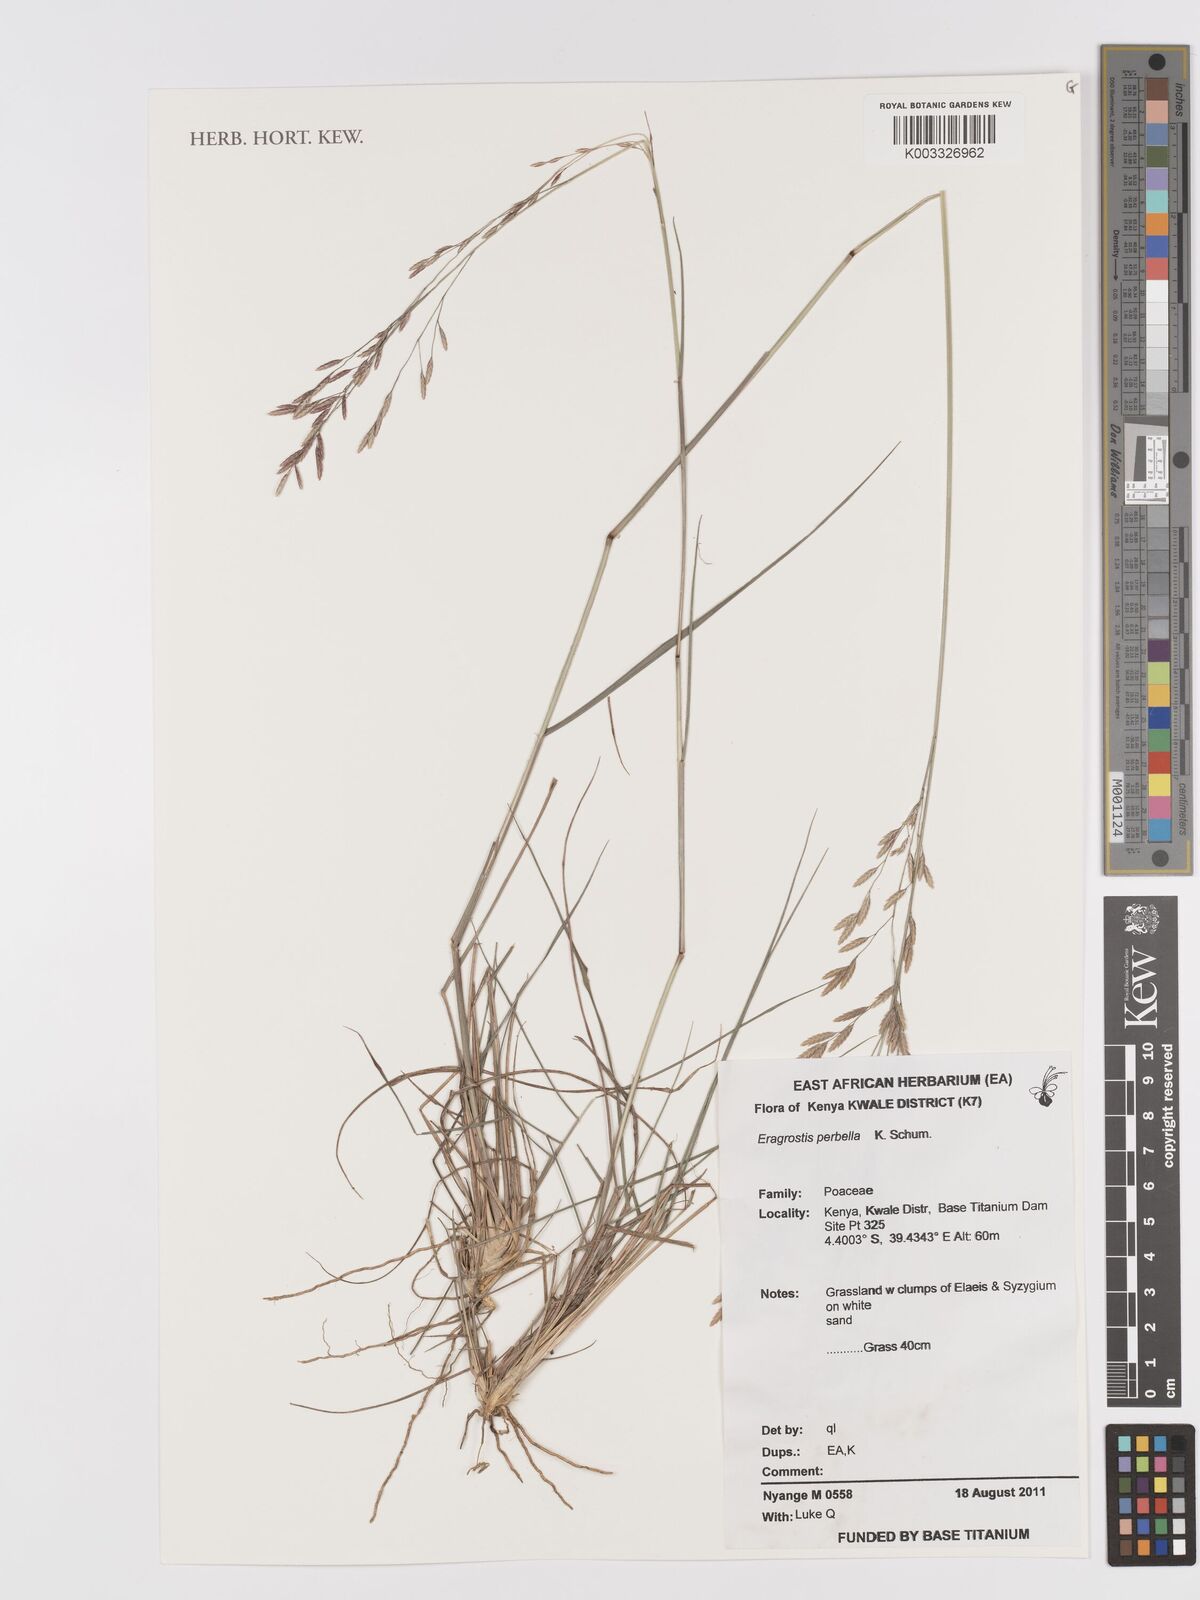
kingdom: Plantae
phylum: Tracheophyta
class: Liliopsida
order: Poales
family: Poaceae
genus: Eragrostis
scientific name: Eragrostis perbella
